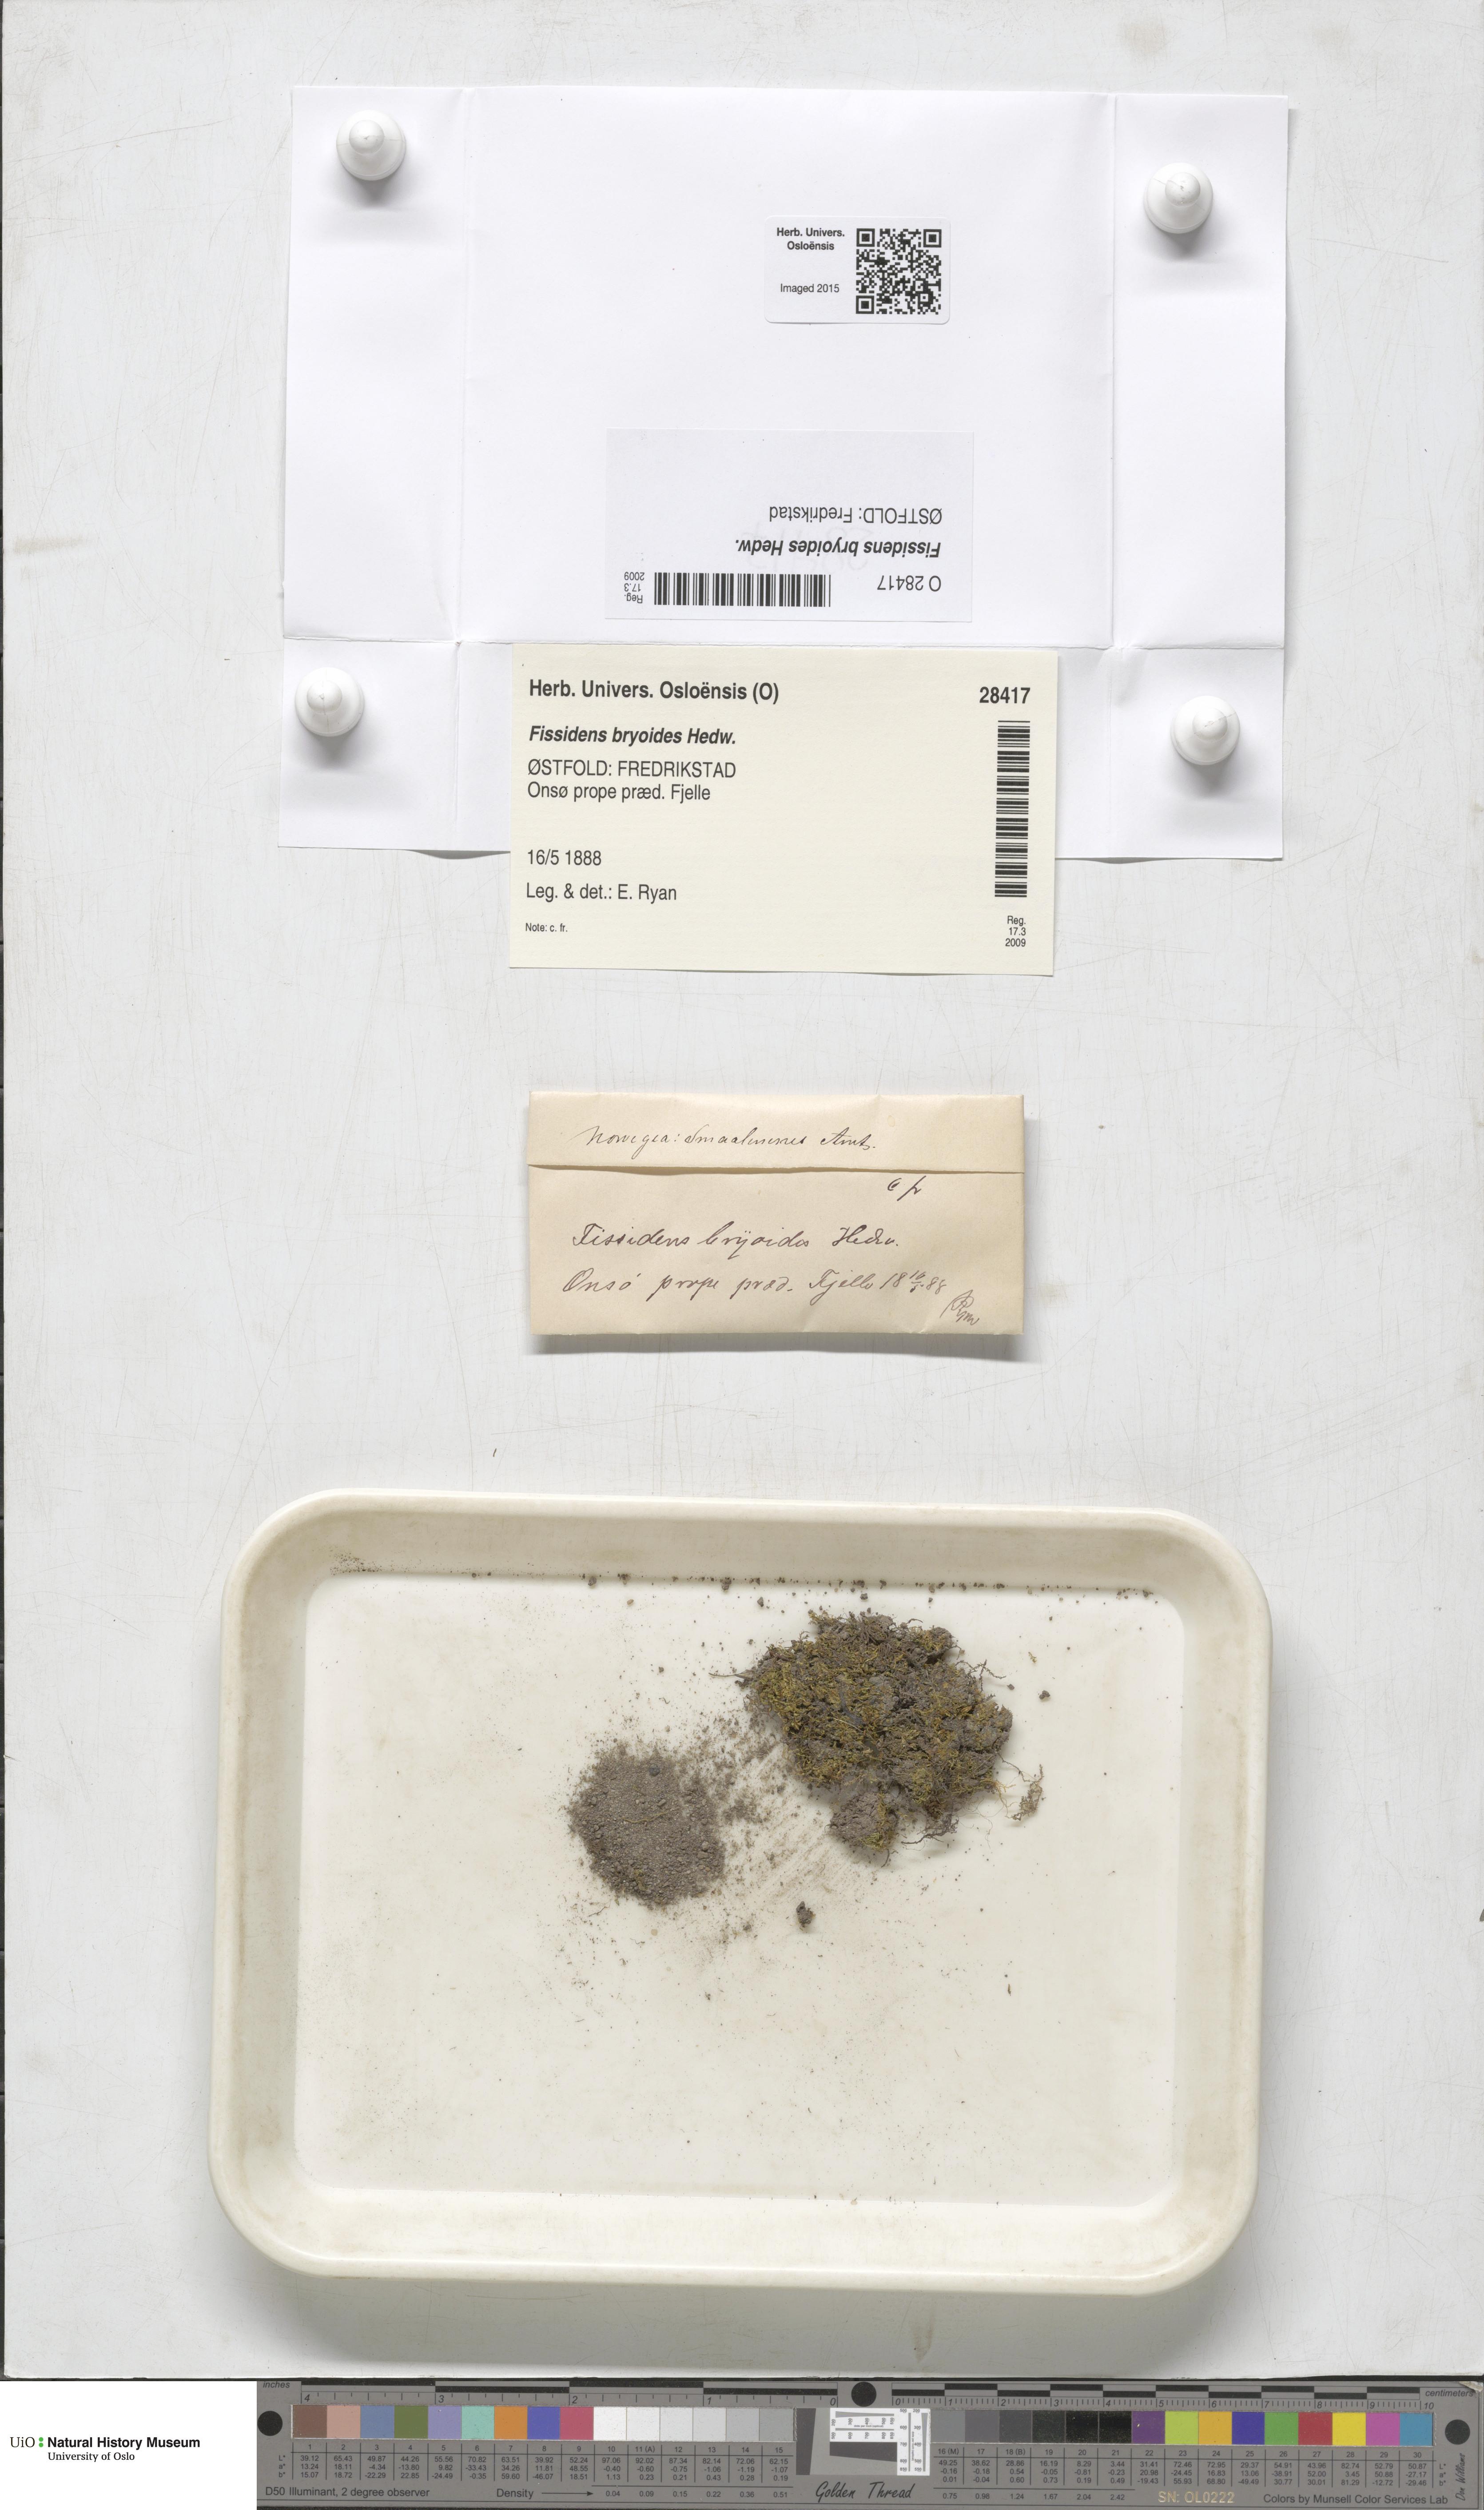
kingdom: Plantae
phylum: Bryophyta
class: Bryopsida
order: Dicranales
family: Fissidentaceae
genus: Fissidens
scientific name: Fissidens bryoides
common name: Lesser pocket moss
